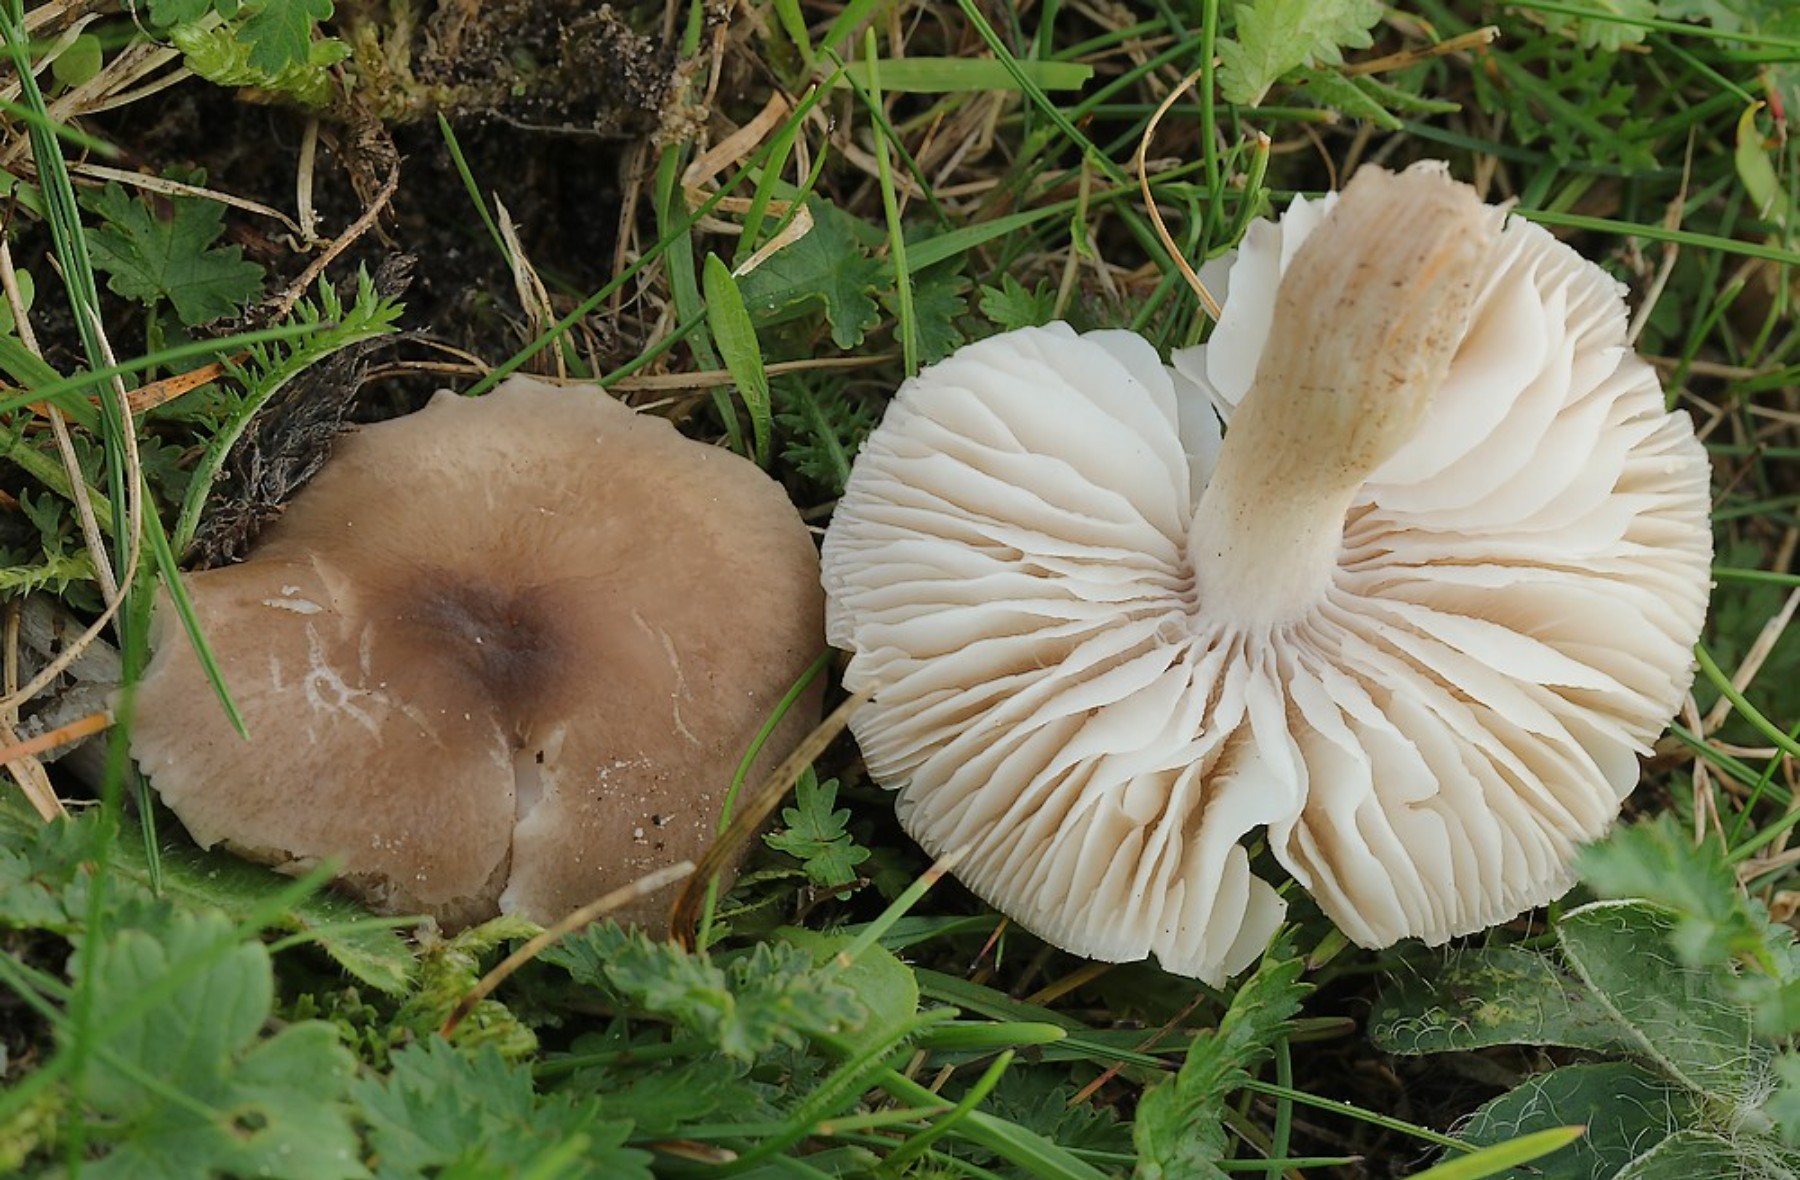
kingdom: Fungi
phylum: Basidiomycota
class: Agaricomycetes
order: Agaricales
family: Tricholomataceae
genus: Dermoloma
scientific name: Dermoloma cuneifolium
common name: eng-nonnehat
